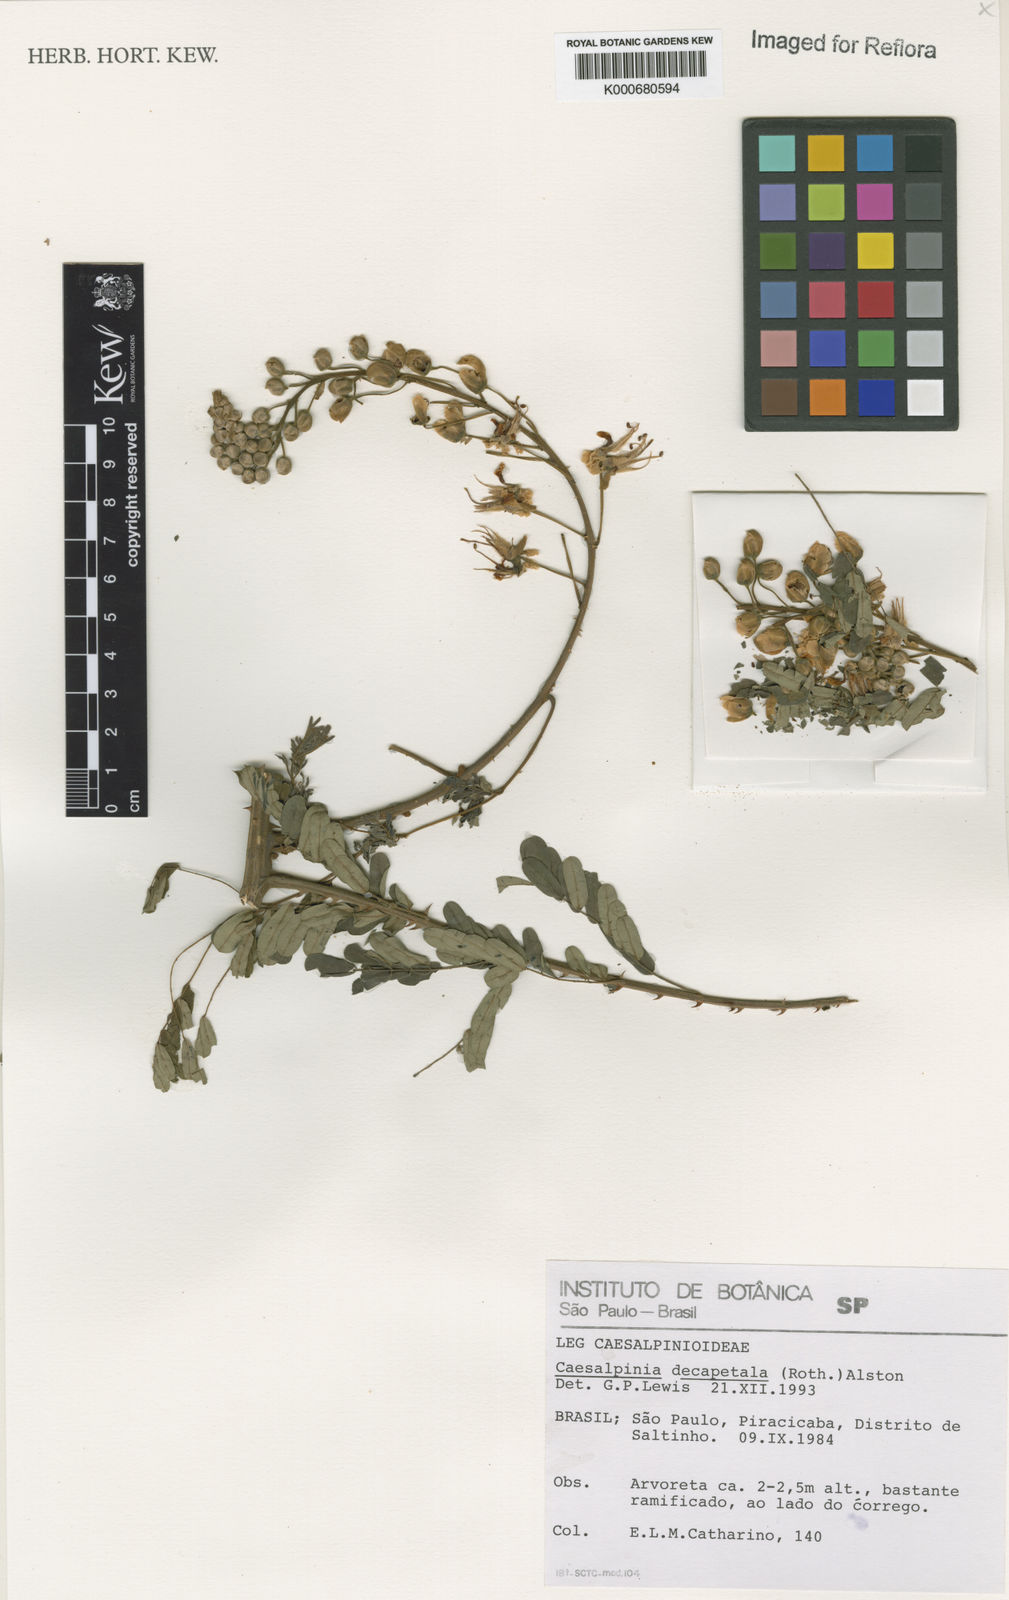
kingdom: Plantae
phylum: Tracheophyta
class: Magnoliopsida
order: Fabales
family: Fabaceae
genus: Biancaea
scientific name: Biancaea decapetala
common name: Cat's claw
